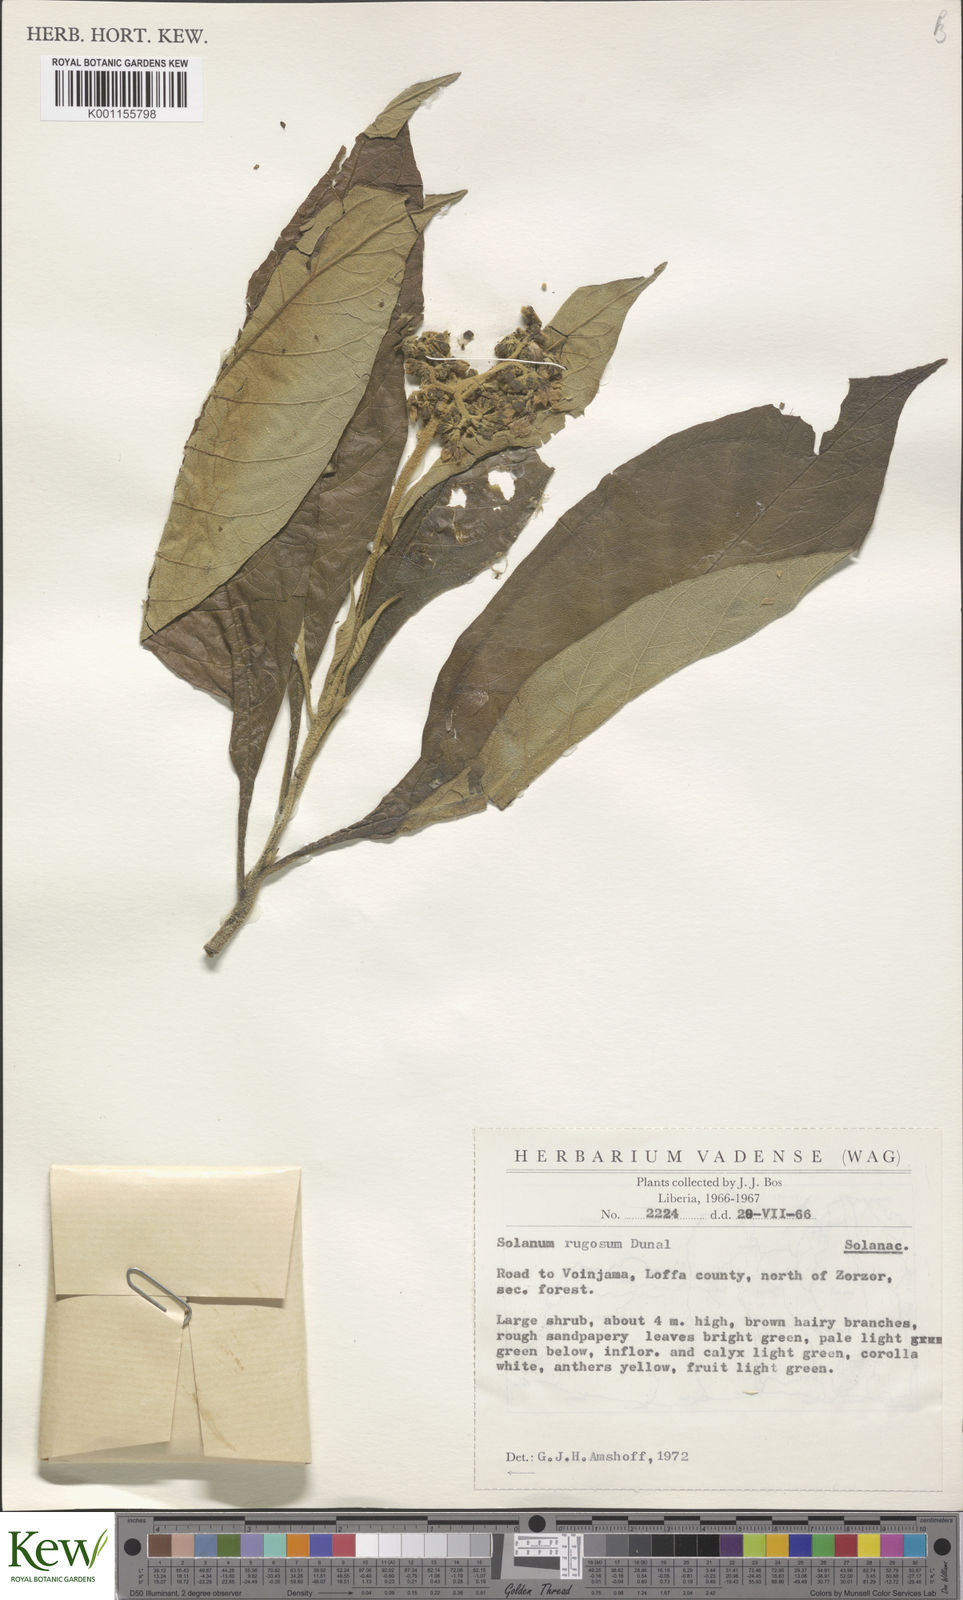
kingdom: Plantae
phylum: Tracheophyta
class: Magnoliopsida
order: Solanales
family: Solanaceae
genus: Solanum
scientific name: Solanum rugosum
